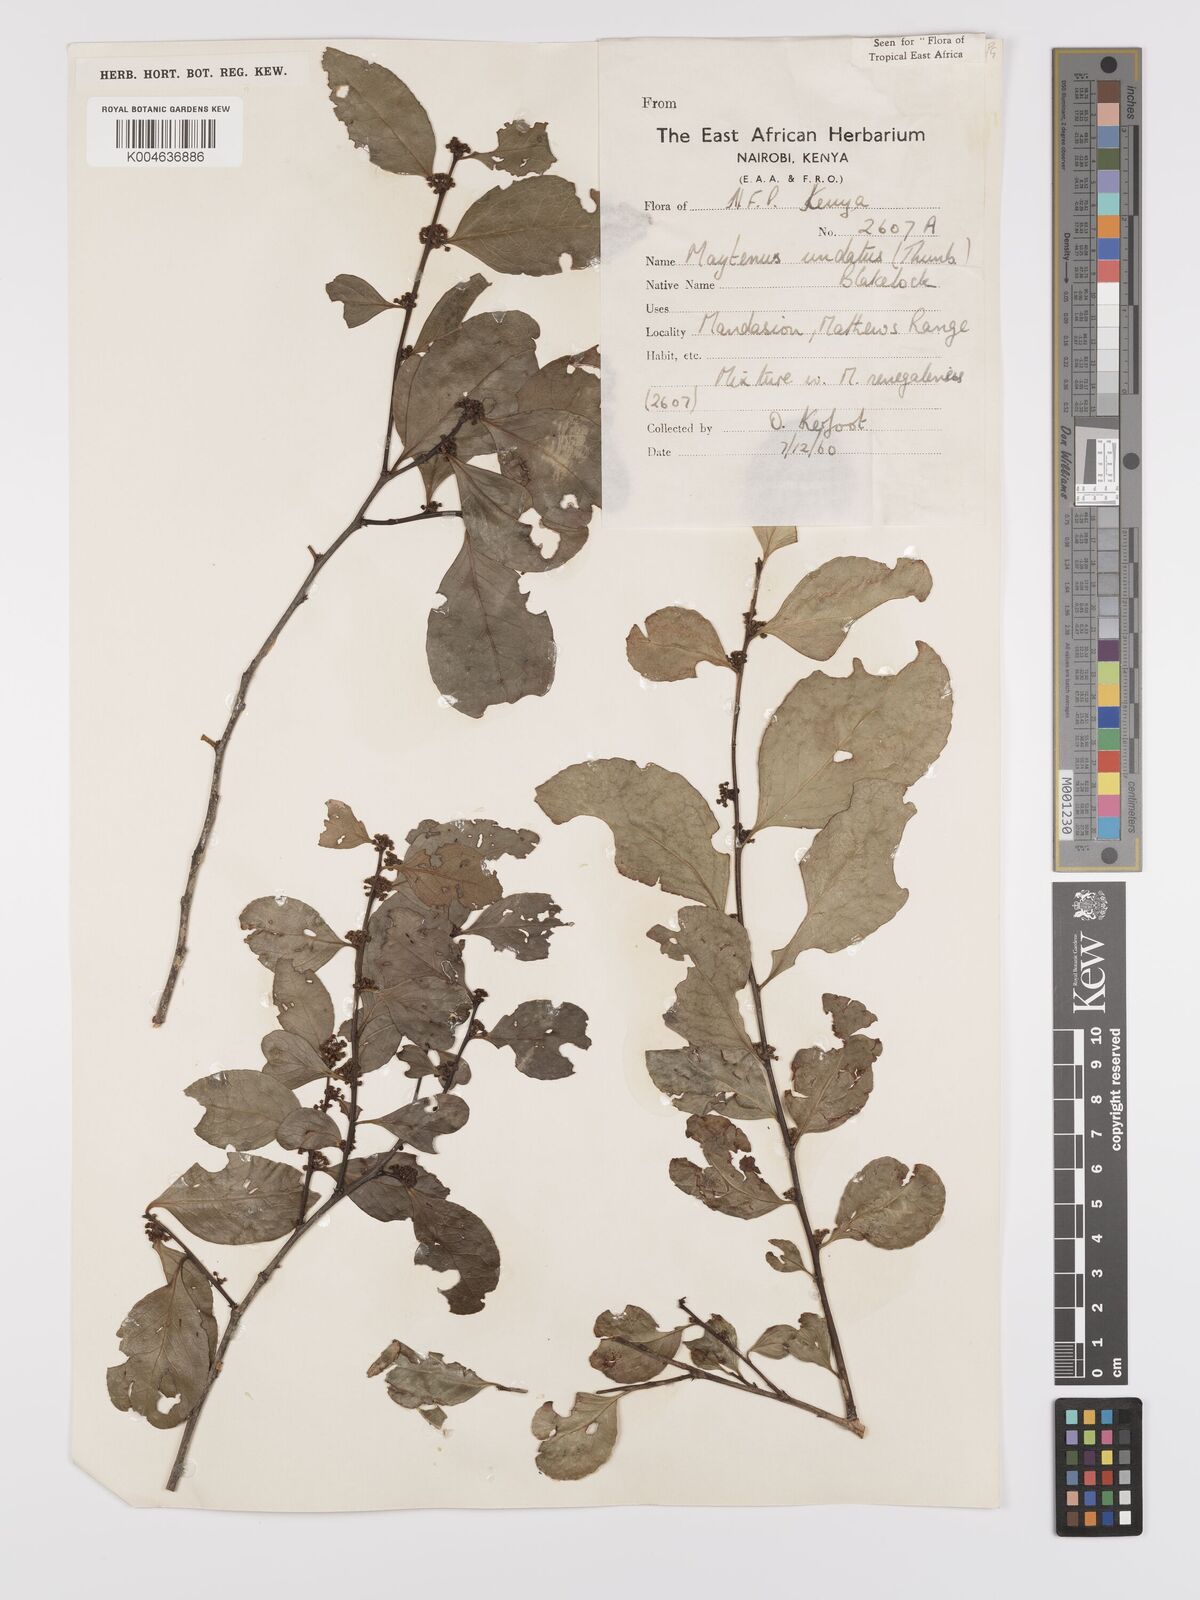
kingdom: Plantae
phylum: Tracheophyta
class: Magnoliopsida
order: Celastrales
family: Celastraceae
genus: Gymnosporia
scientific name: Gymnosporia undata
